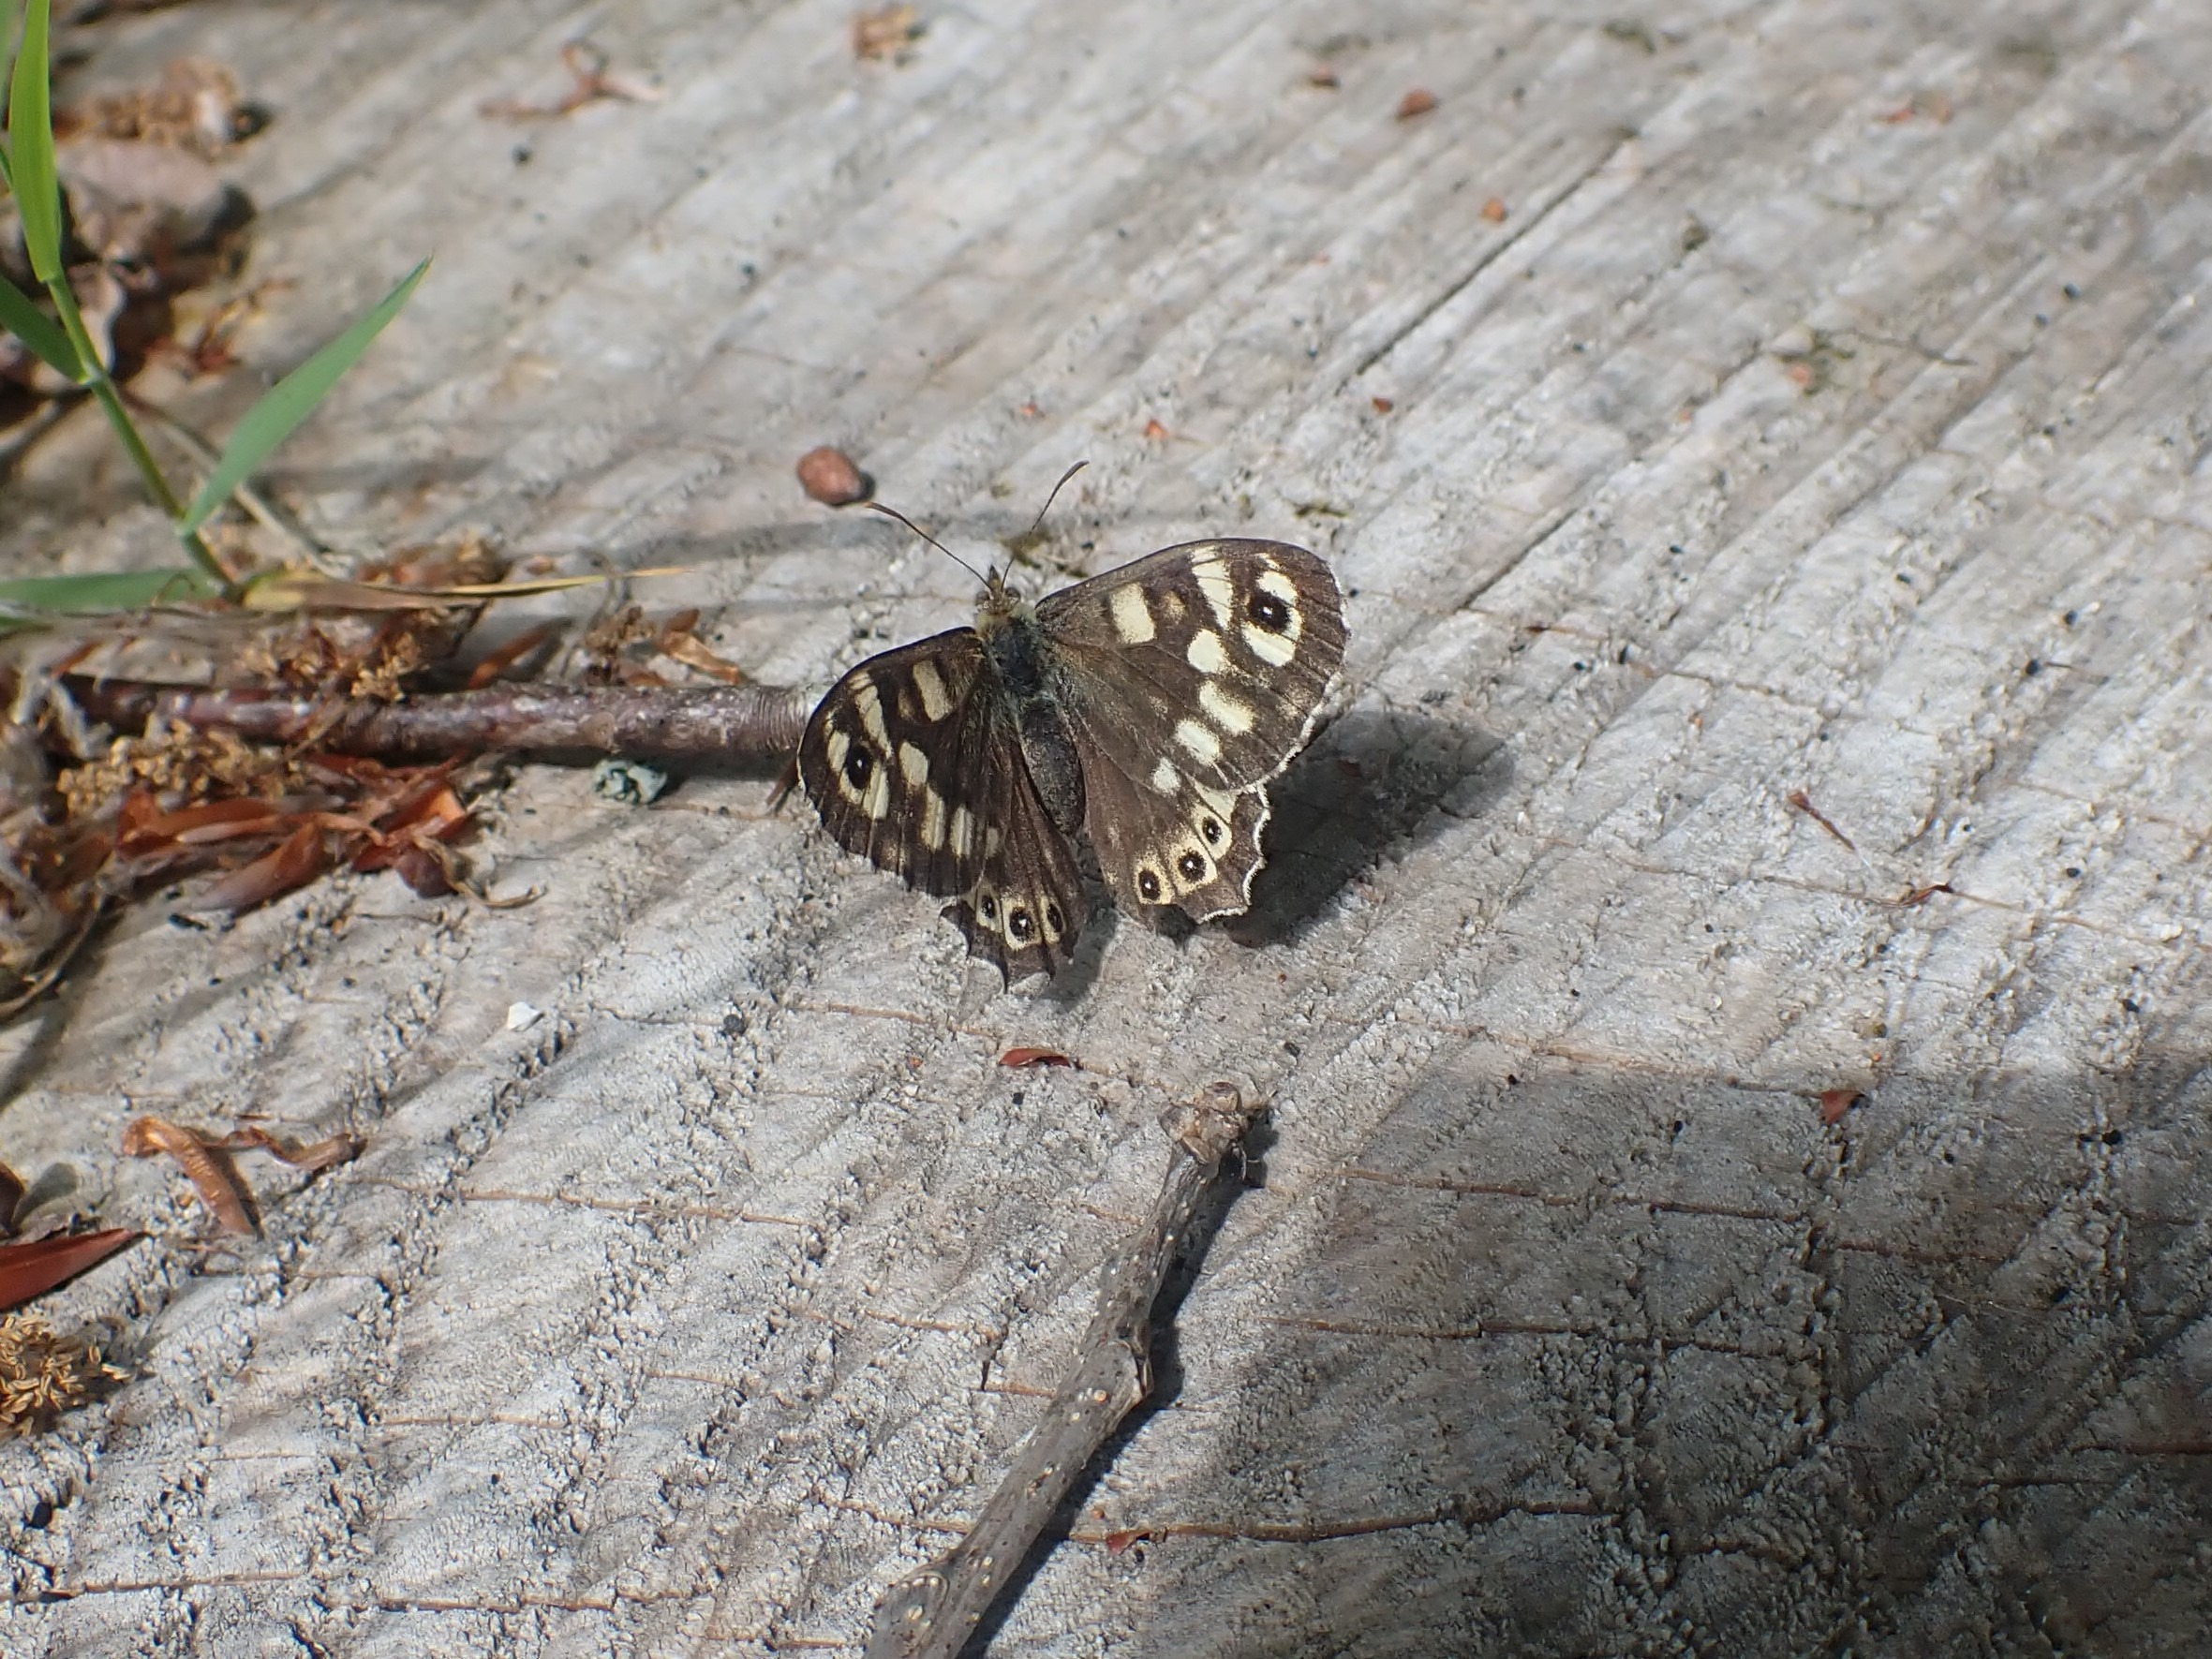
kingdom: Animalia
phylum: Arthropoda
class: Insecta
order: Lepidoptera
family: Nymphalidae
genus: Pararge
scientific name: Pararge aegeria
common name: Skovrandøje
